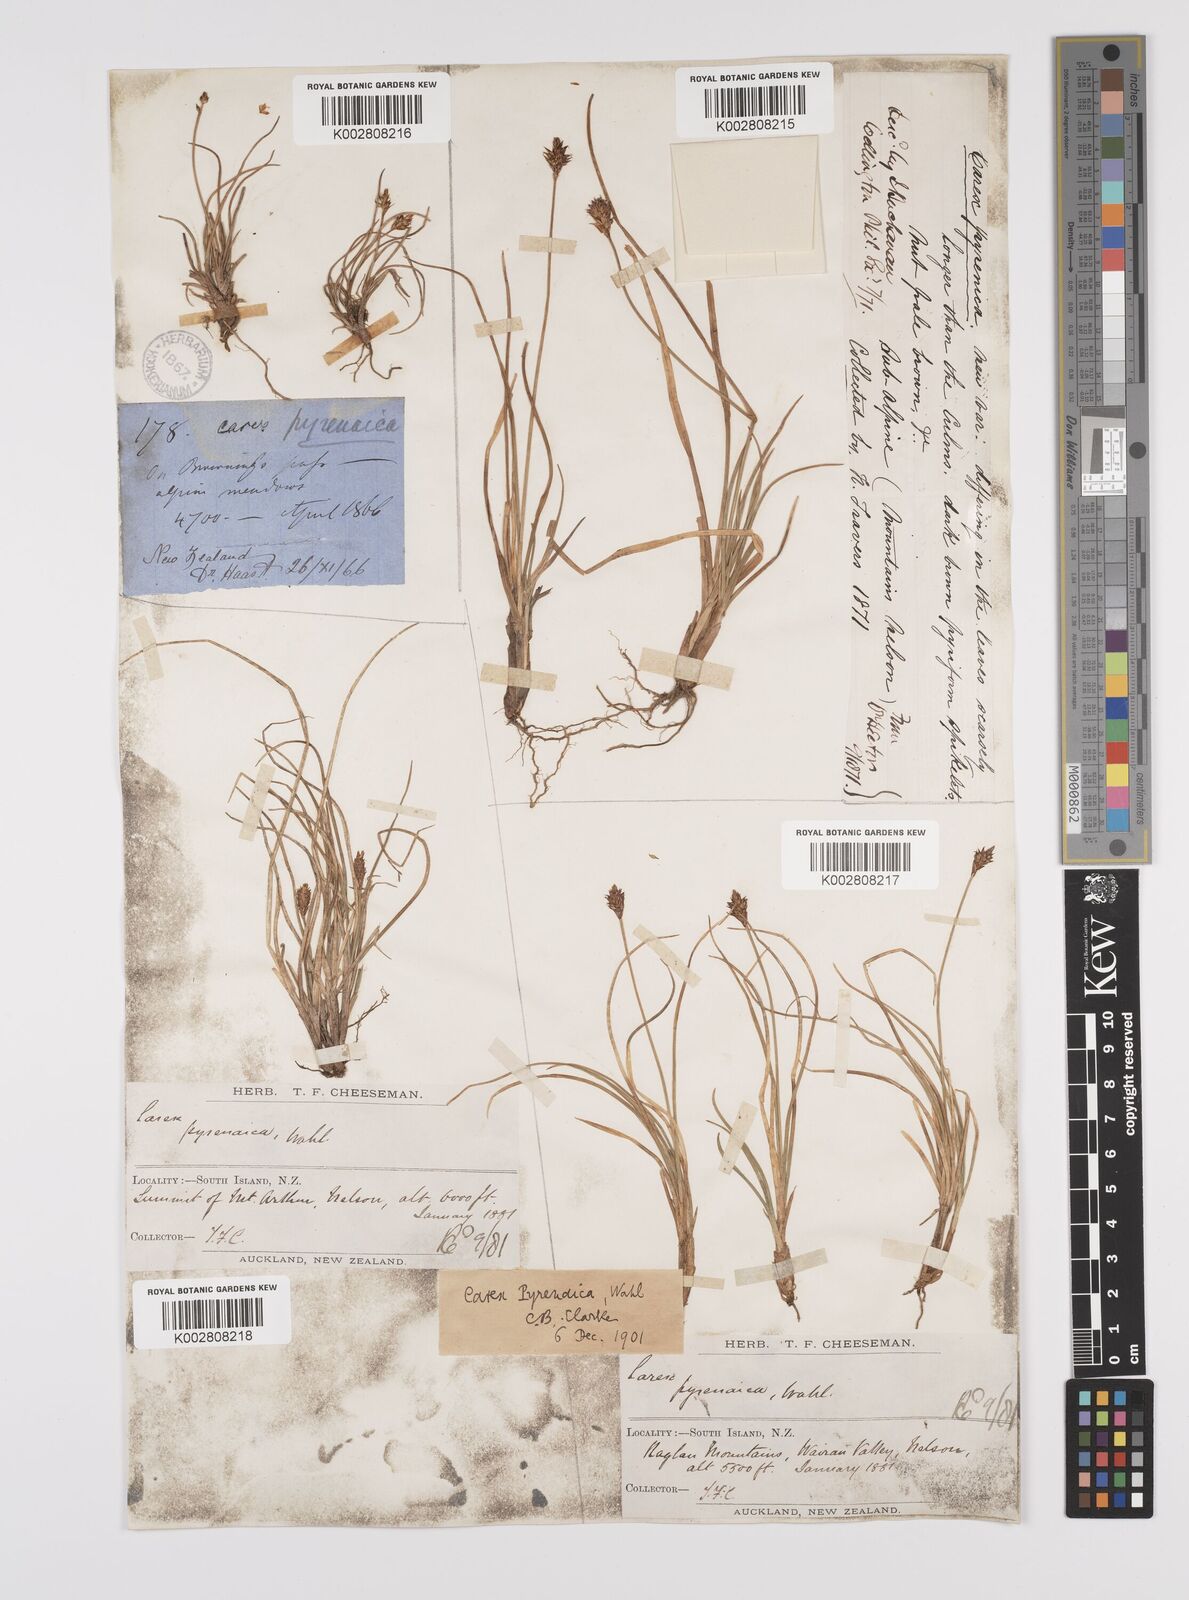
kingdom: Plantae
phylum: Tracheophyta
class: Liliopsida
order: Poales
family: Cyperaceae
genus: Carex
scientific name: Carex pyrenaica
